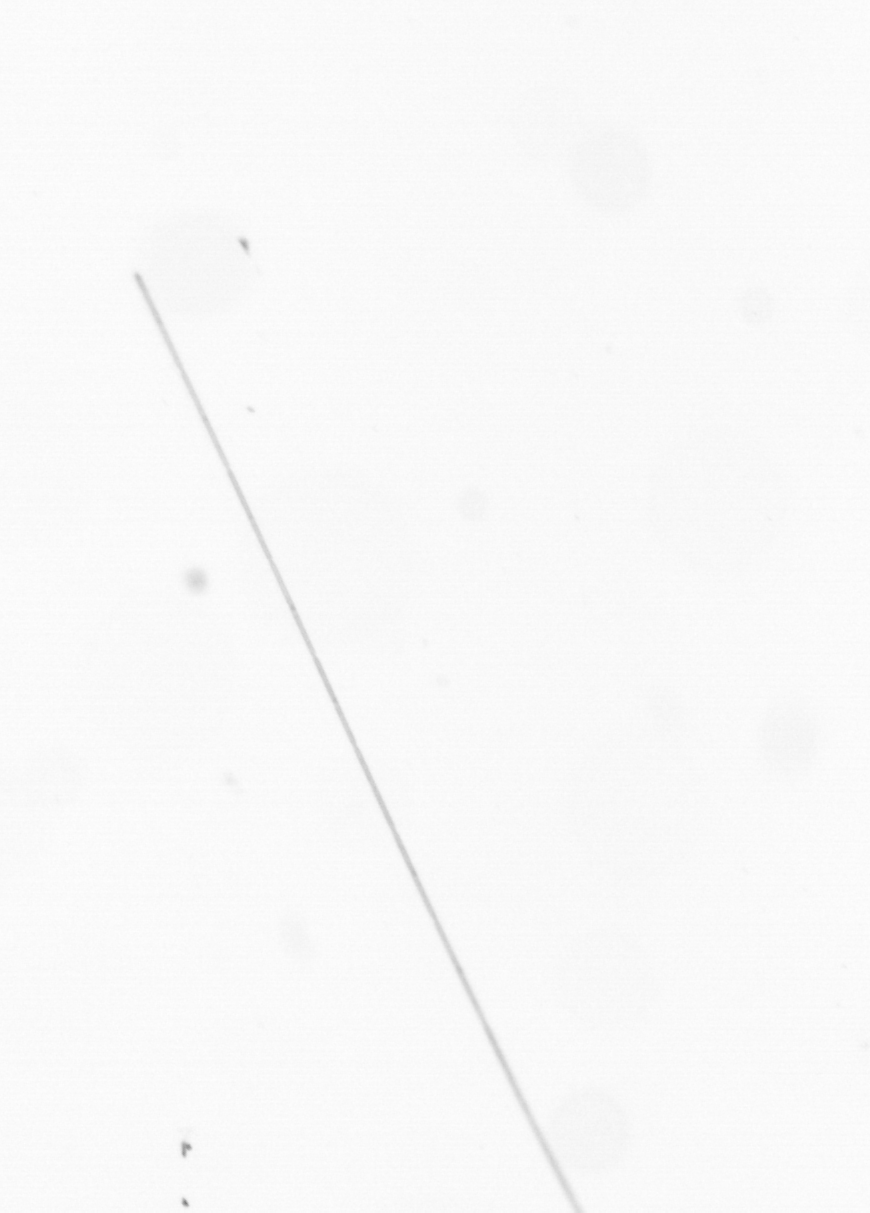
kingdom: Chromista
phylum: Ochrophyta
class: Bacillariophyceae
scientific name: Bacillariophyceae
